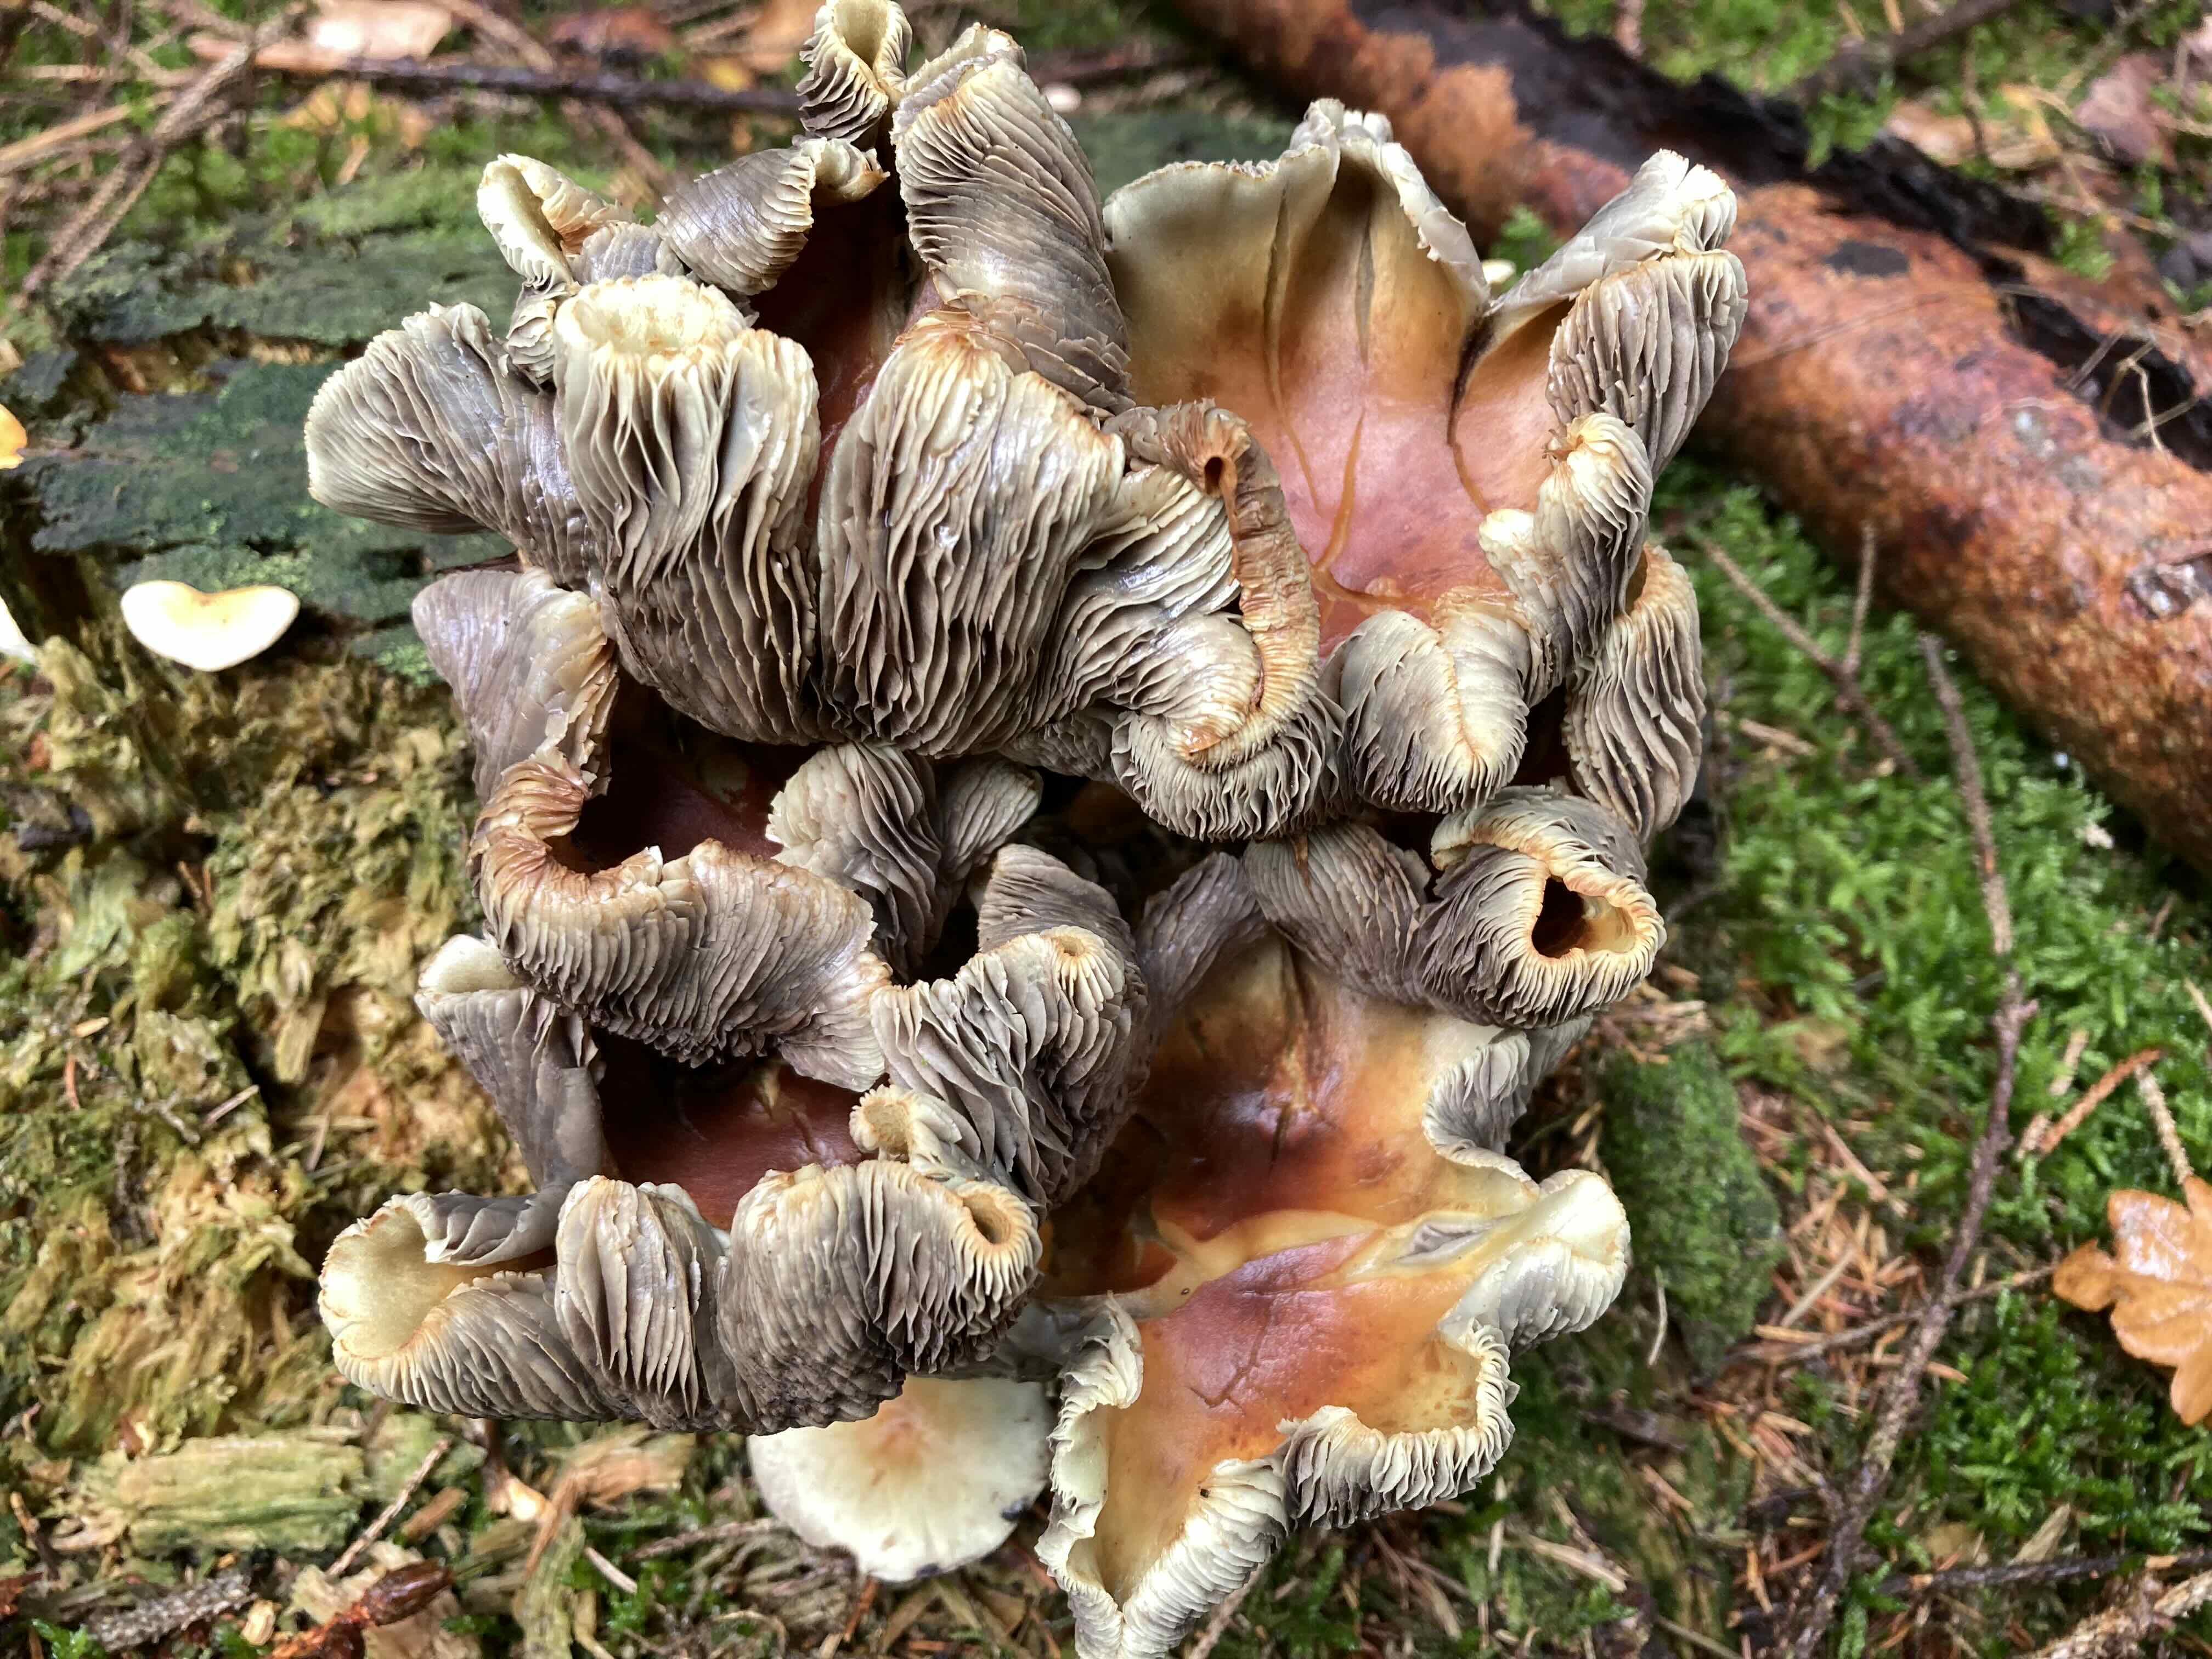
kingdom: Fungi
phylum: Basidiomycota
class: Agaricomycetes
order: Agaricales
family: Strophariaceae
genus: Hypholoma
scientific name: Hypholoma fasciculare
